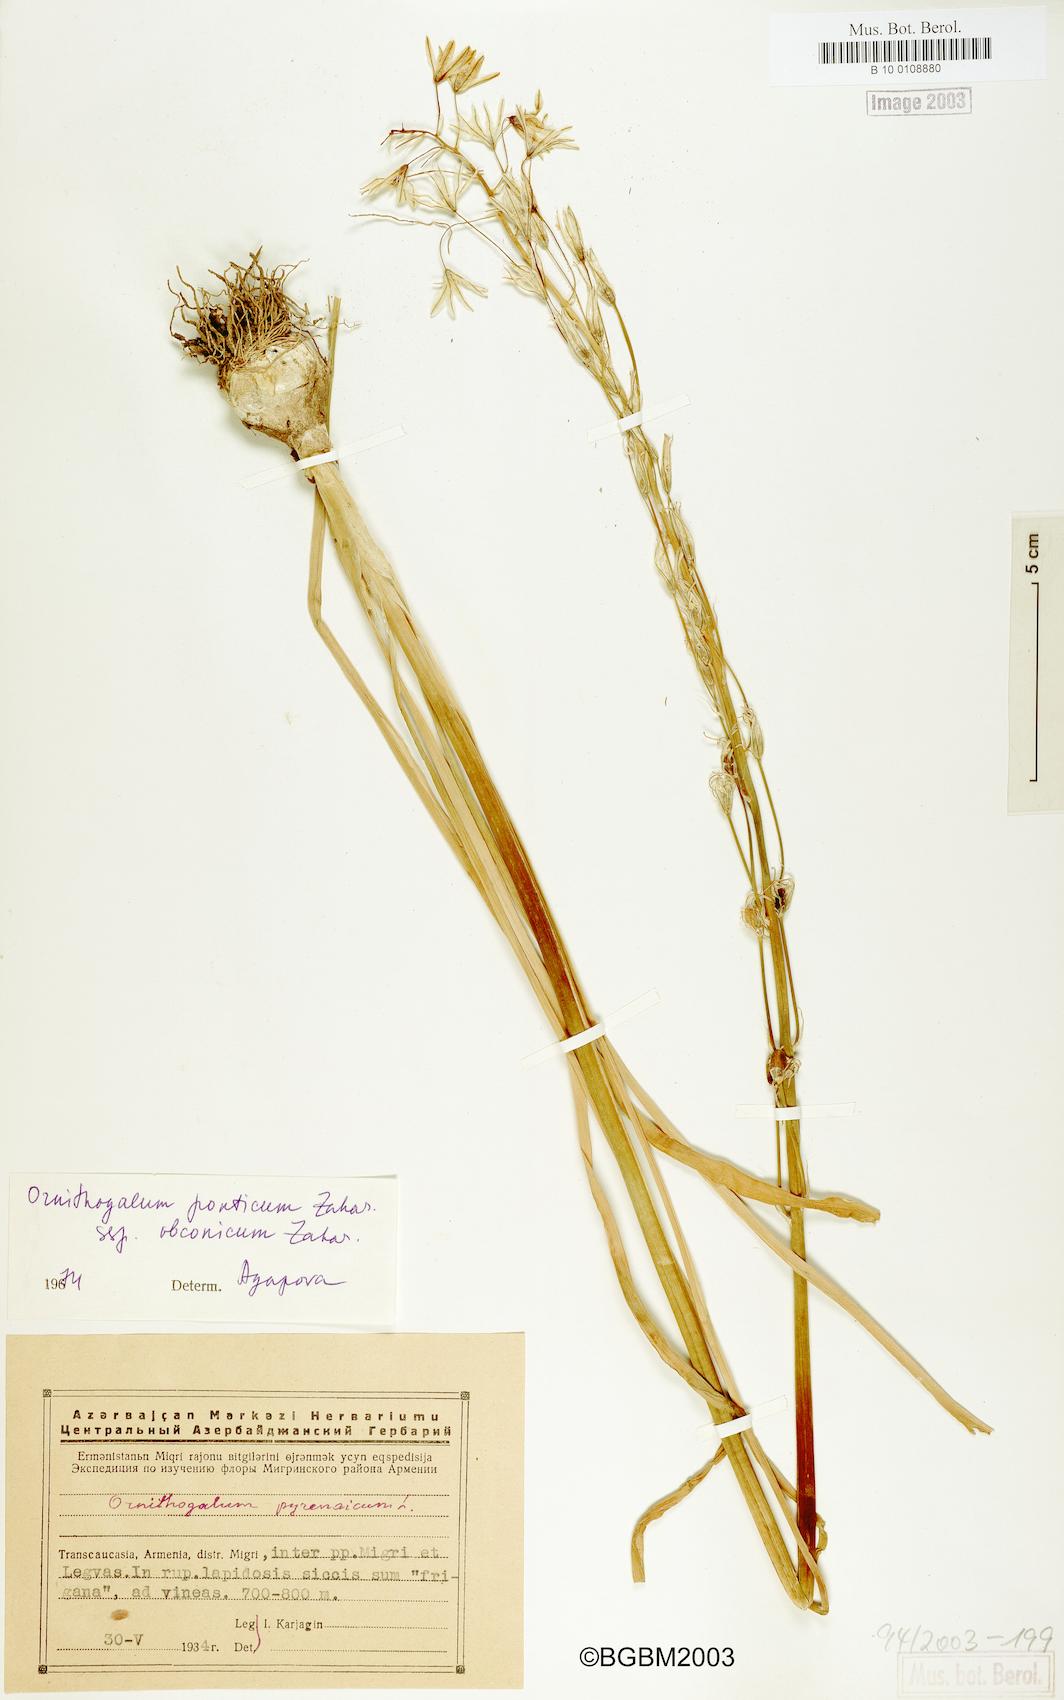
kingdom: Plantae
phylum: Tracheophyta
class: Liliopsida
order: Asparagales
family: Asparagaceae
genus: Ornithogalum
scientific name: Ornithogalum hajastanum
